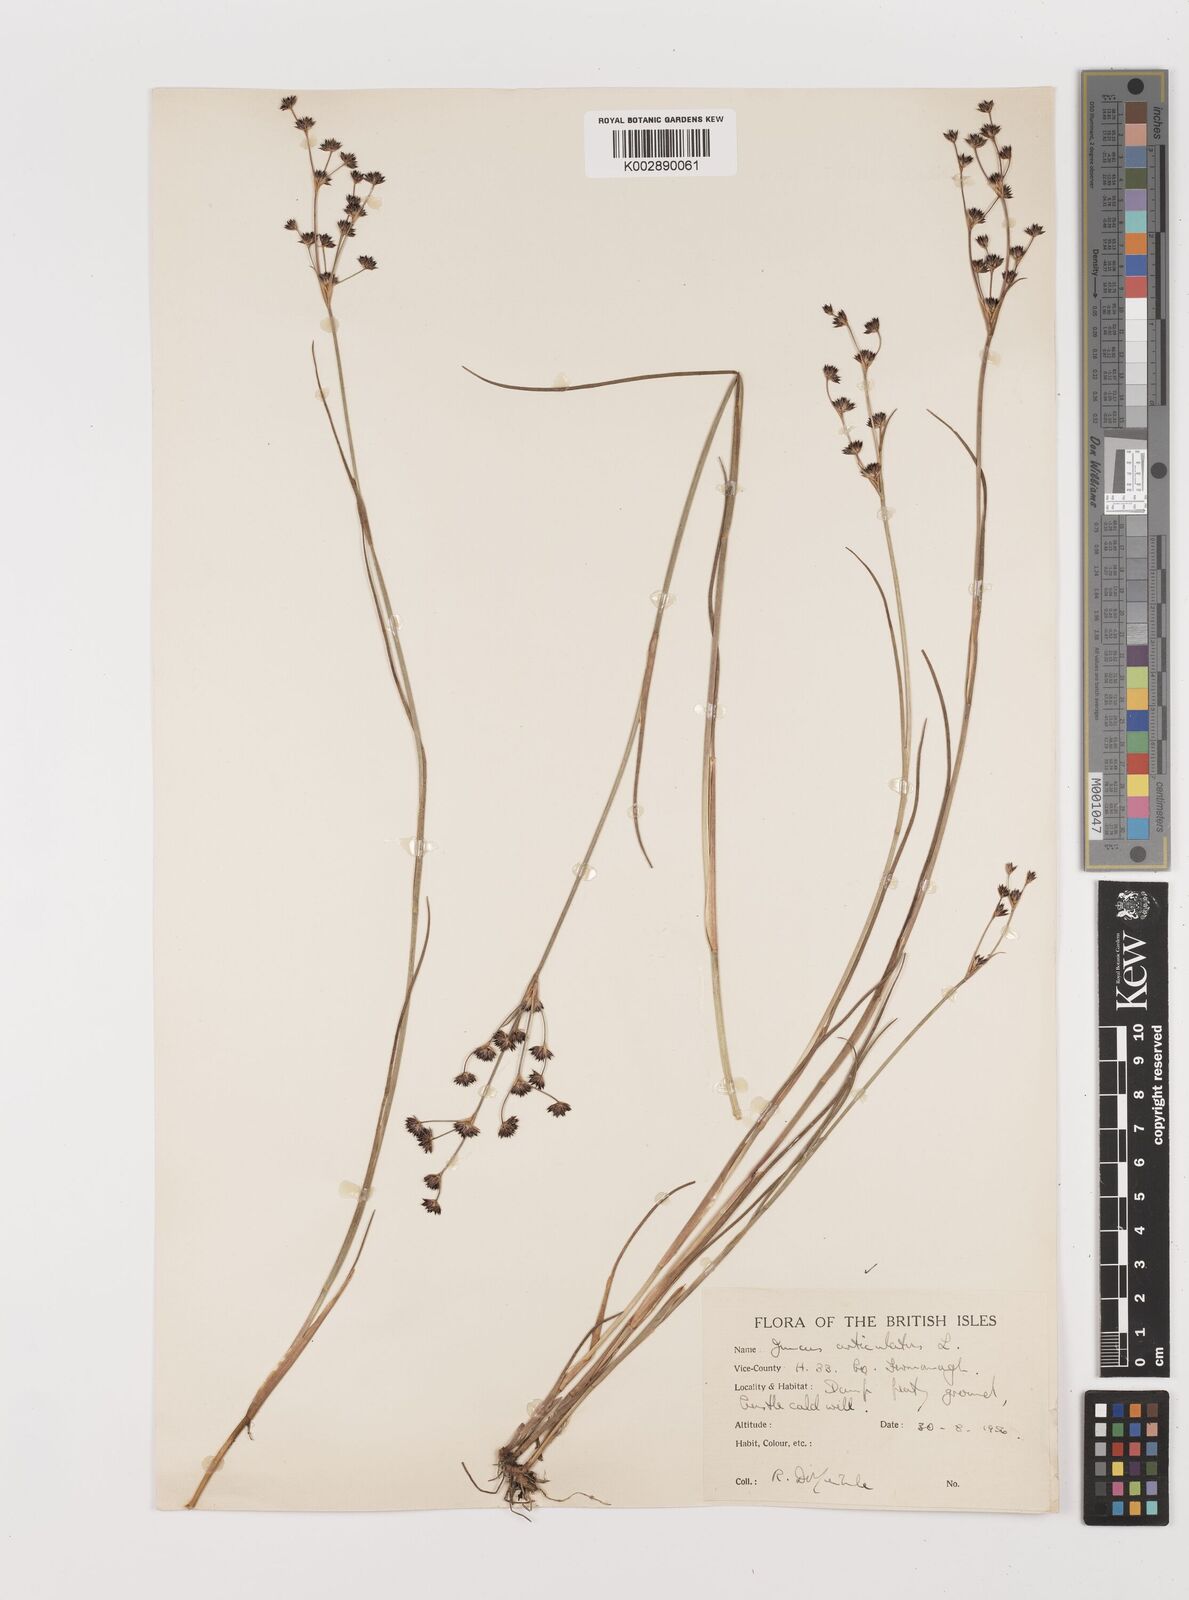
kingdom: Plantae
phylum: Tracheophyta
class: Liliopsida
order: Poales
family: Juncaceae
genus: Juncus
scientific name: Juncus articulatus
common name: Jointed rush
